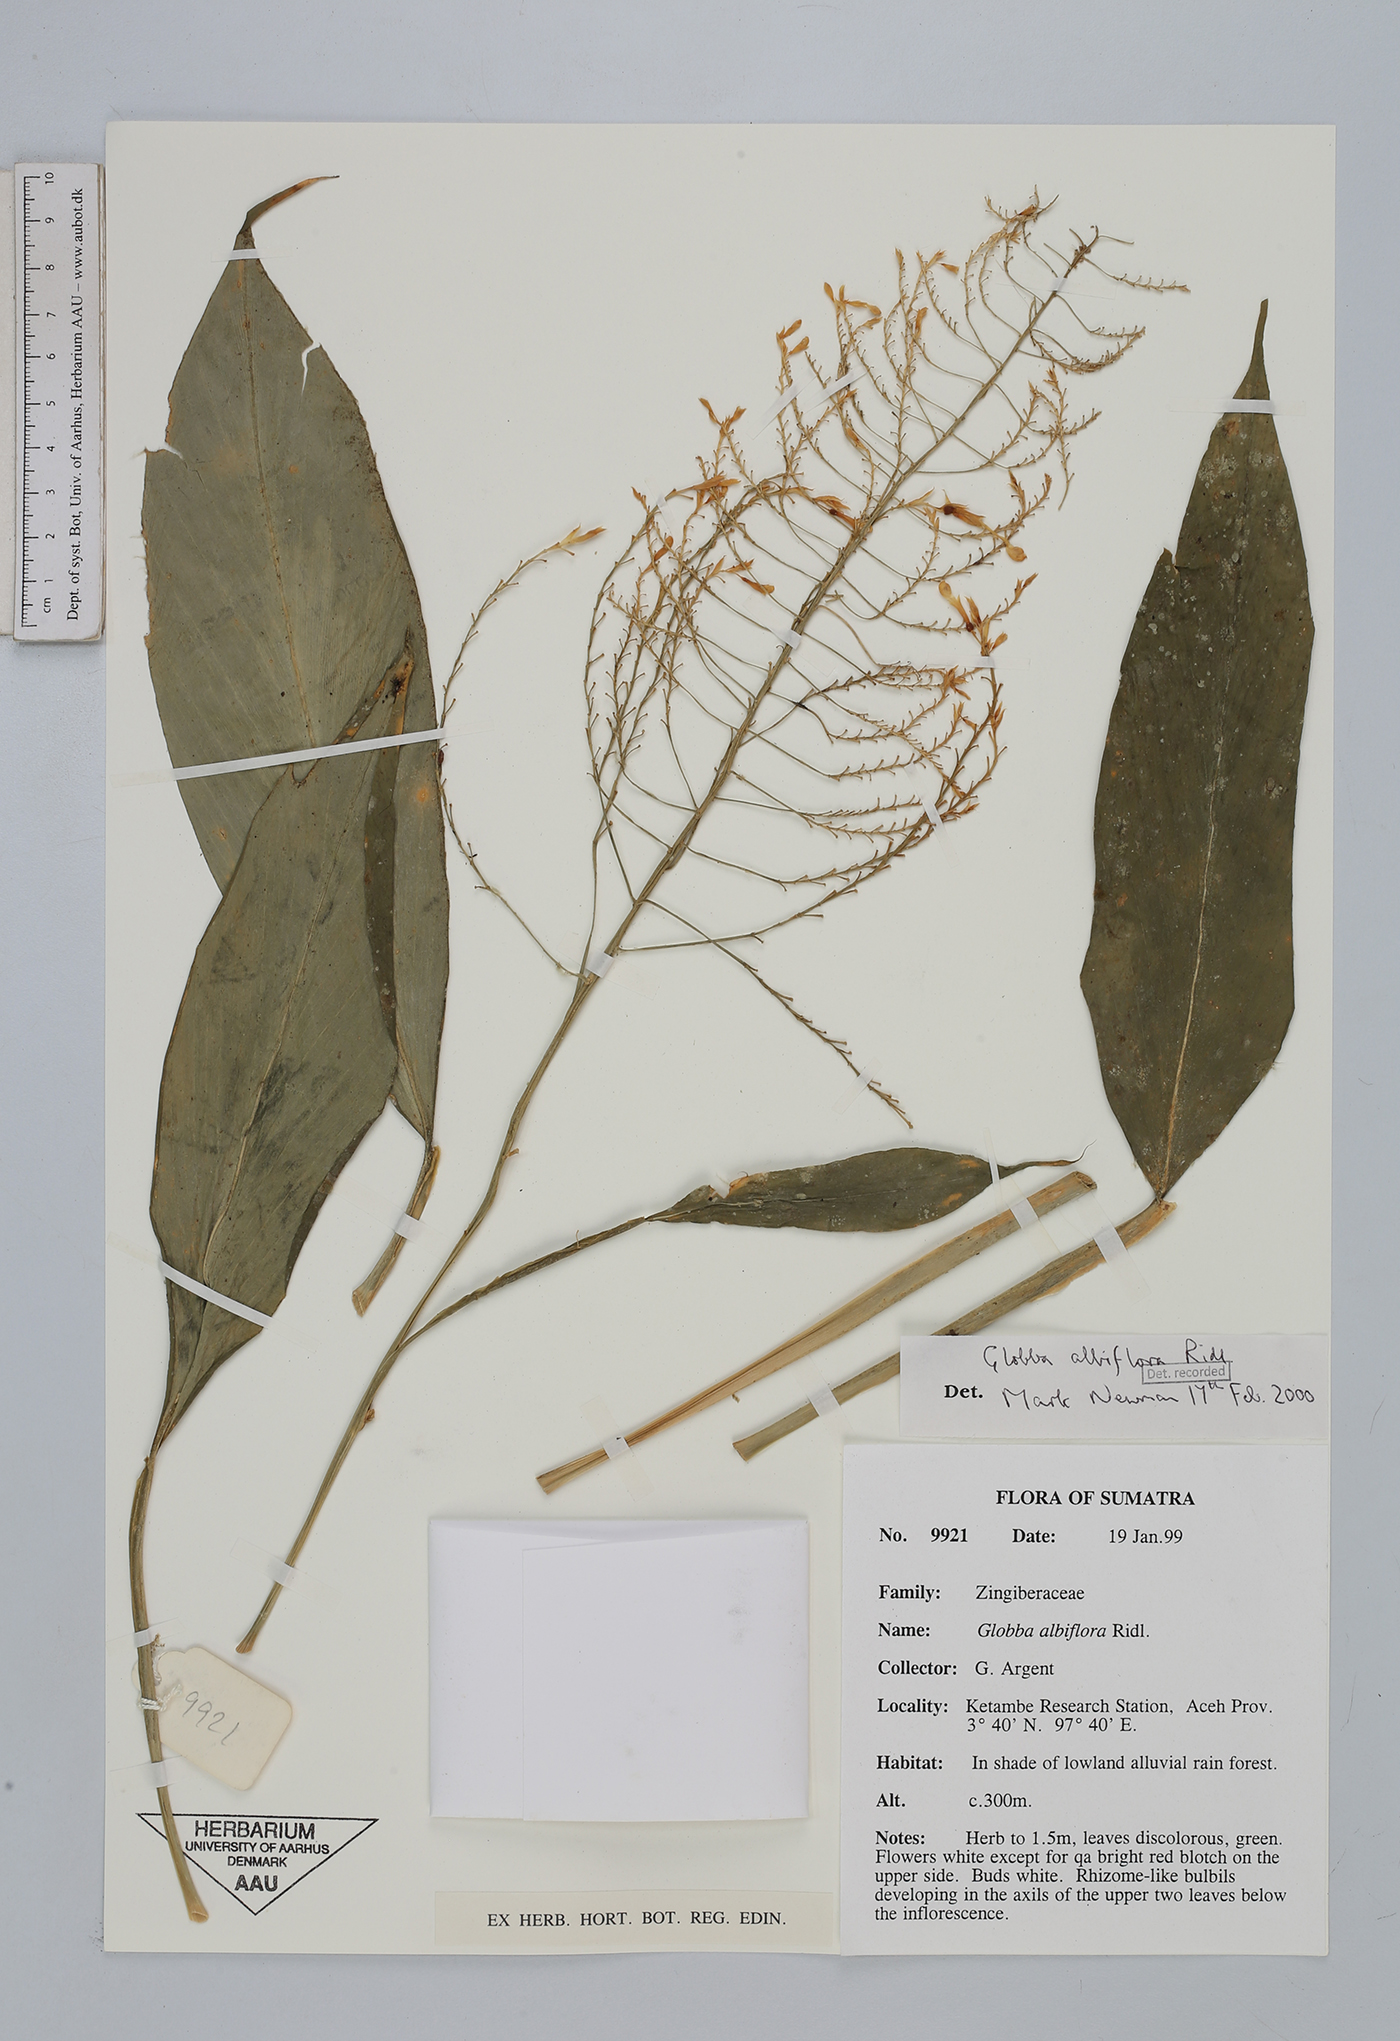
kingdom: Plantae
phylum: Tracheophyta
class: Liliopsida
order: Zingiberales
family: Zingiberaceae
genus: Globba
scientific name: Globba pyrrhopoikila
